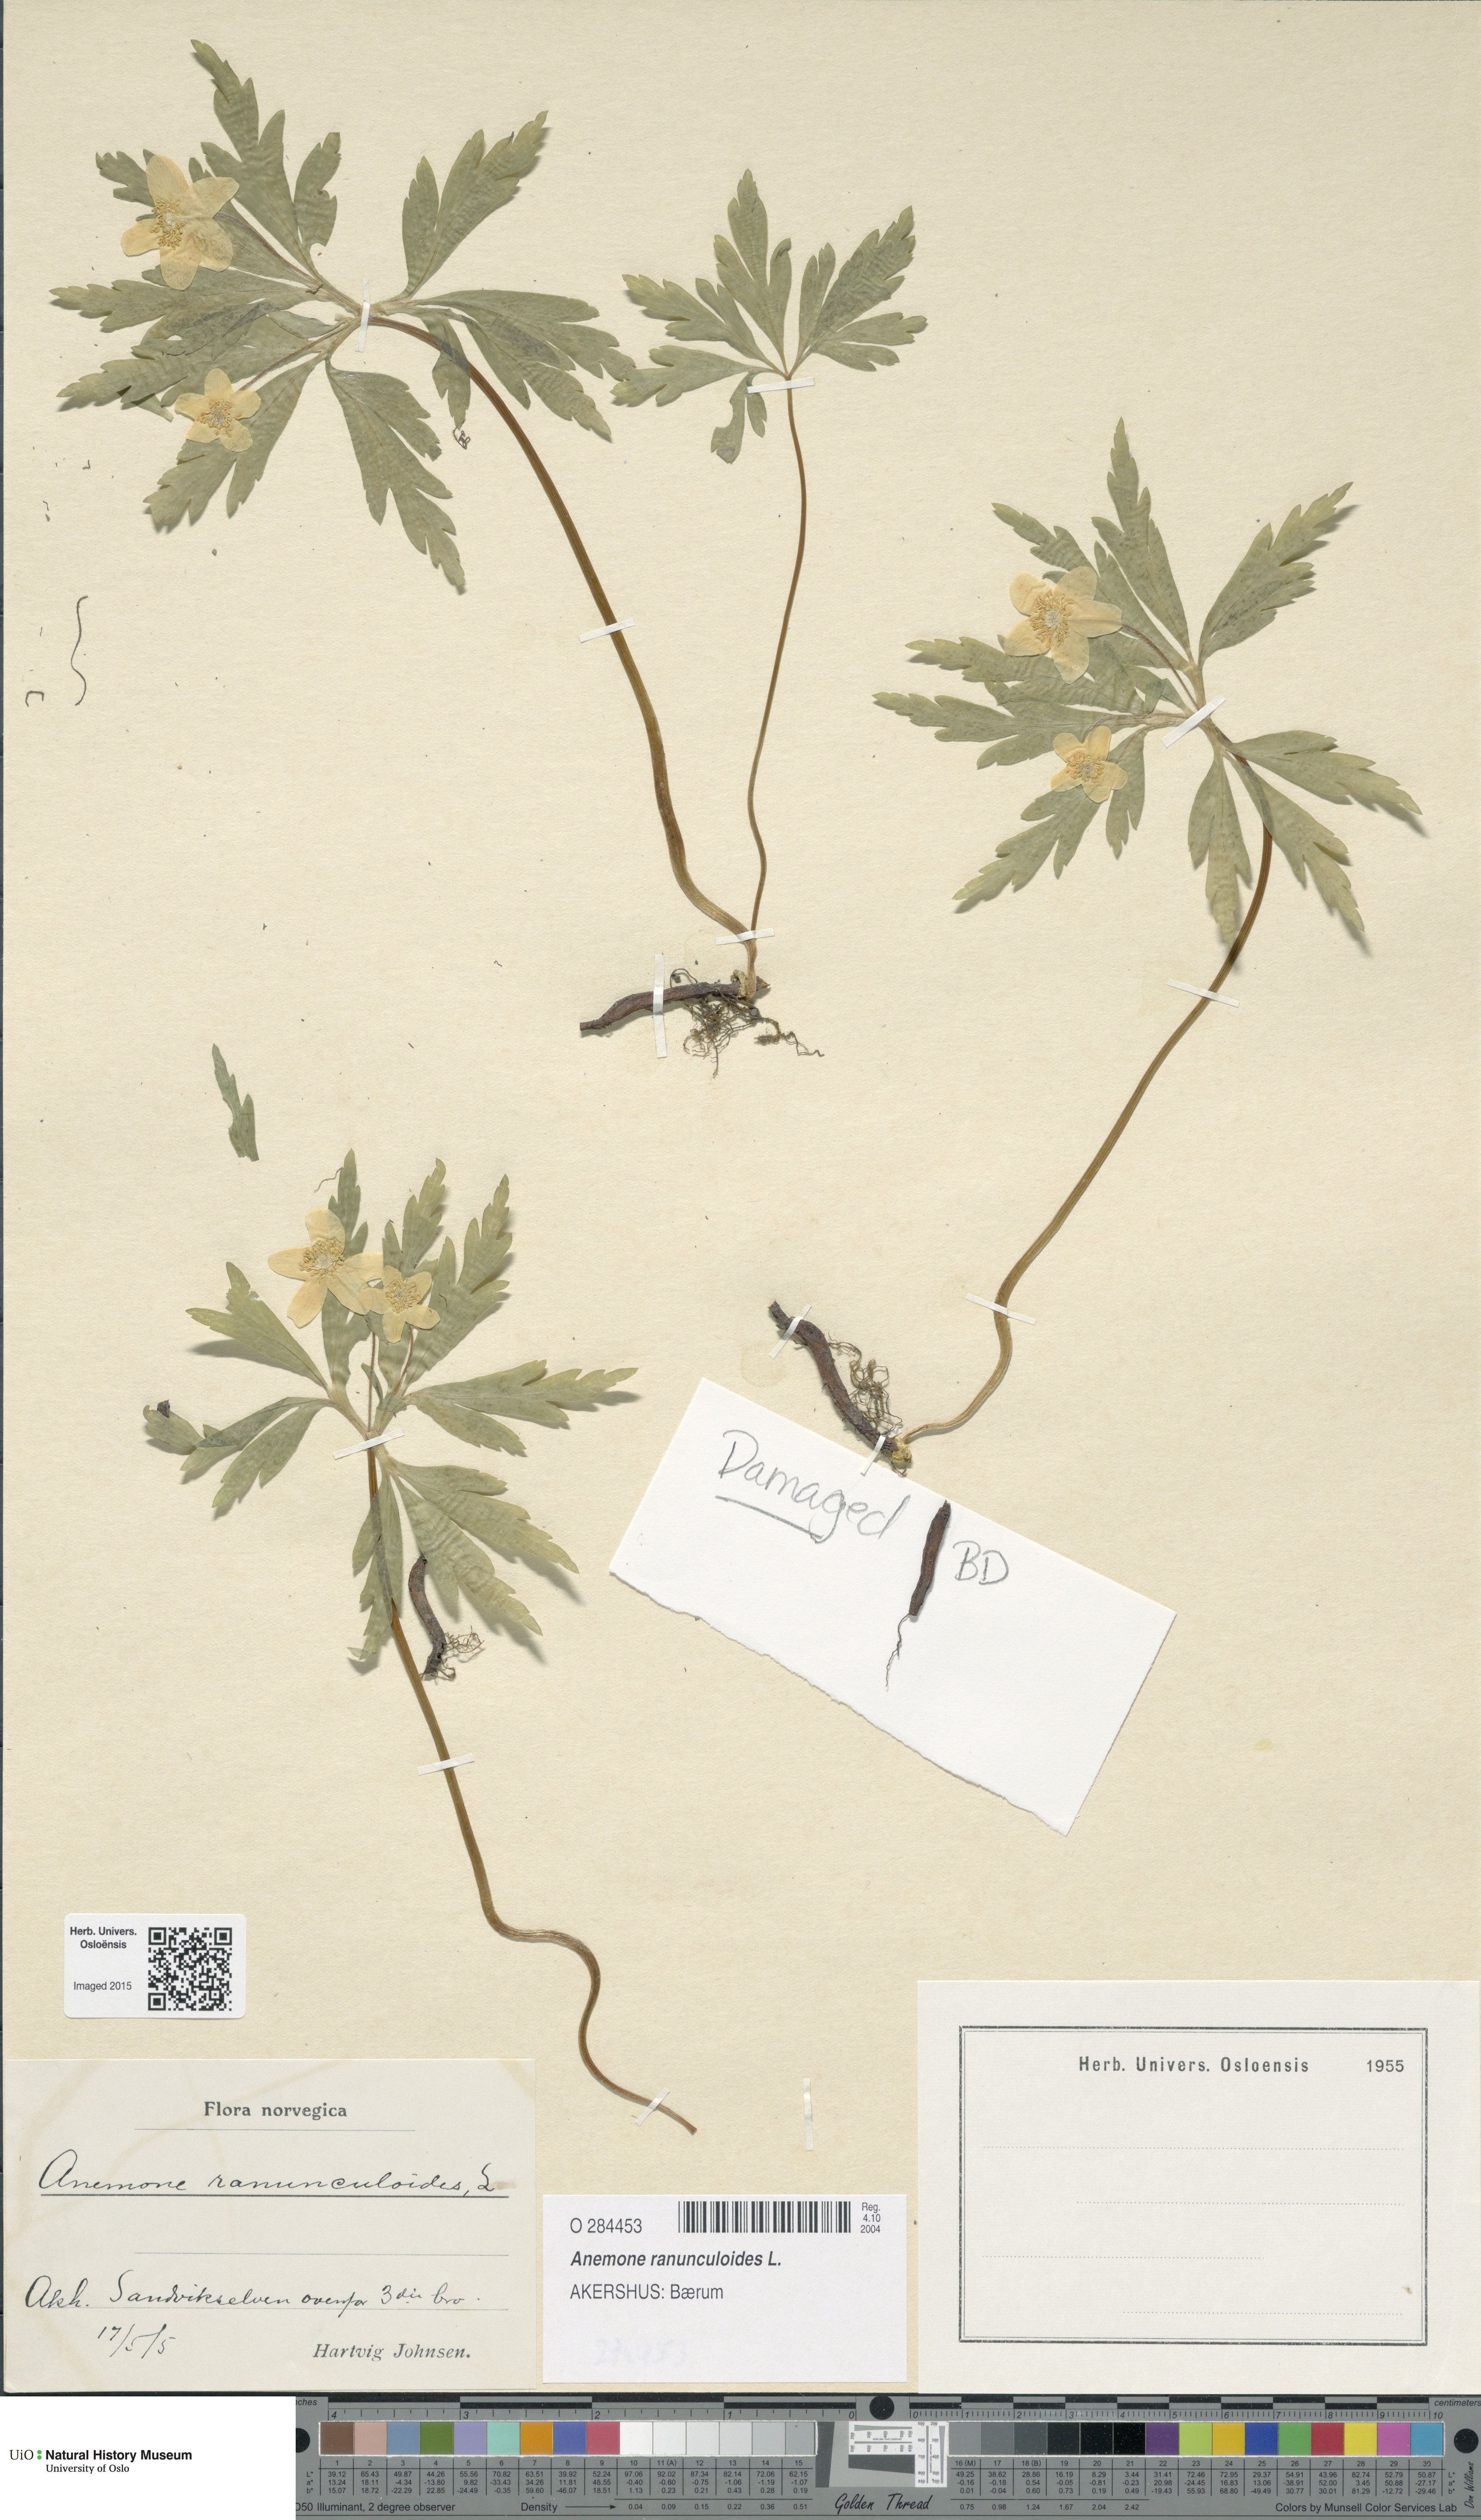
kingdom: Plantae
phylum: Tracheophyta
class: Magnoliopsida
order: Ranunculales
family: Ranunculaceae
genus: Anemone
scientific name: Anemone ranunculoides
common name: Yellow anemone
